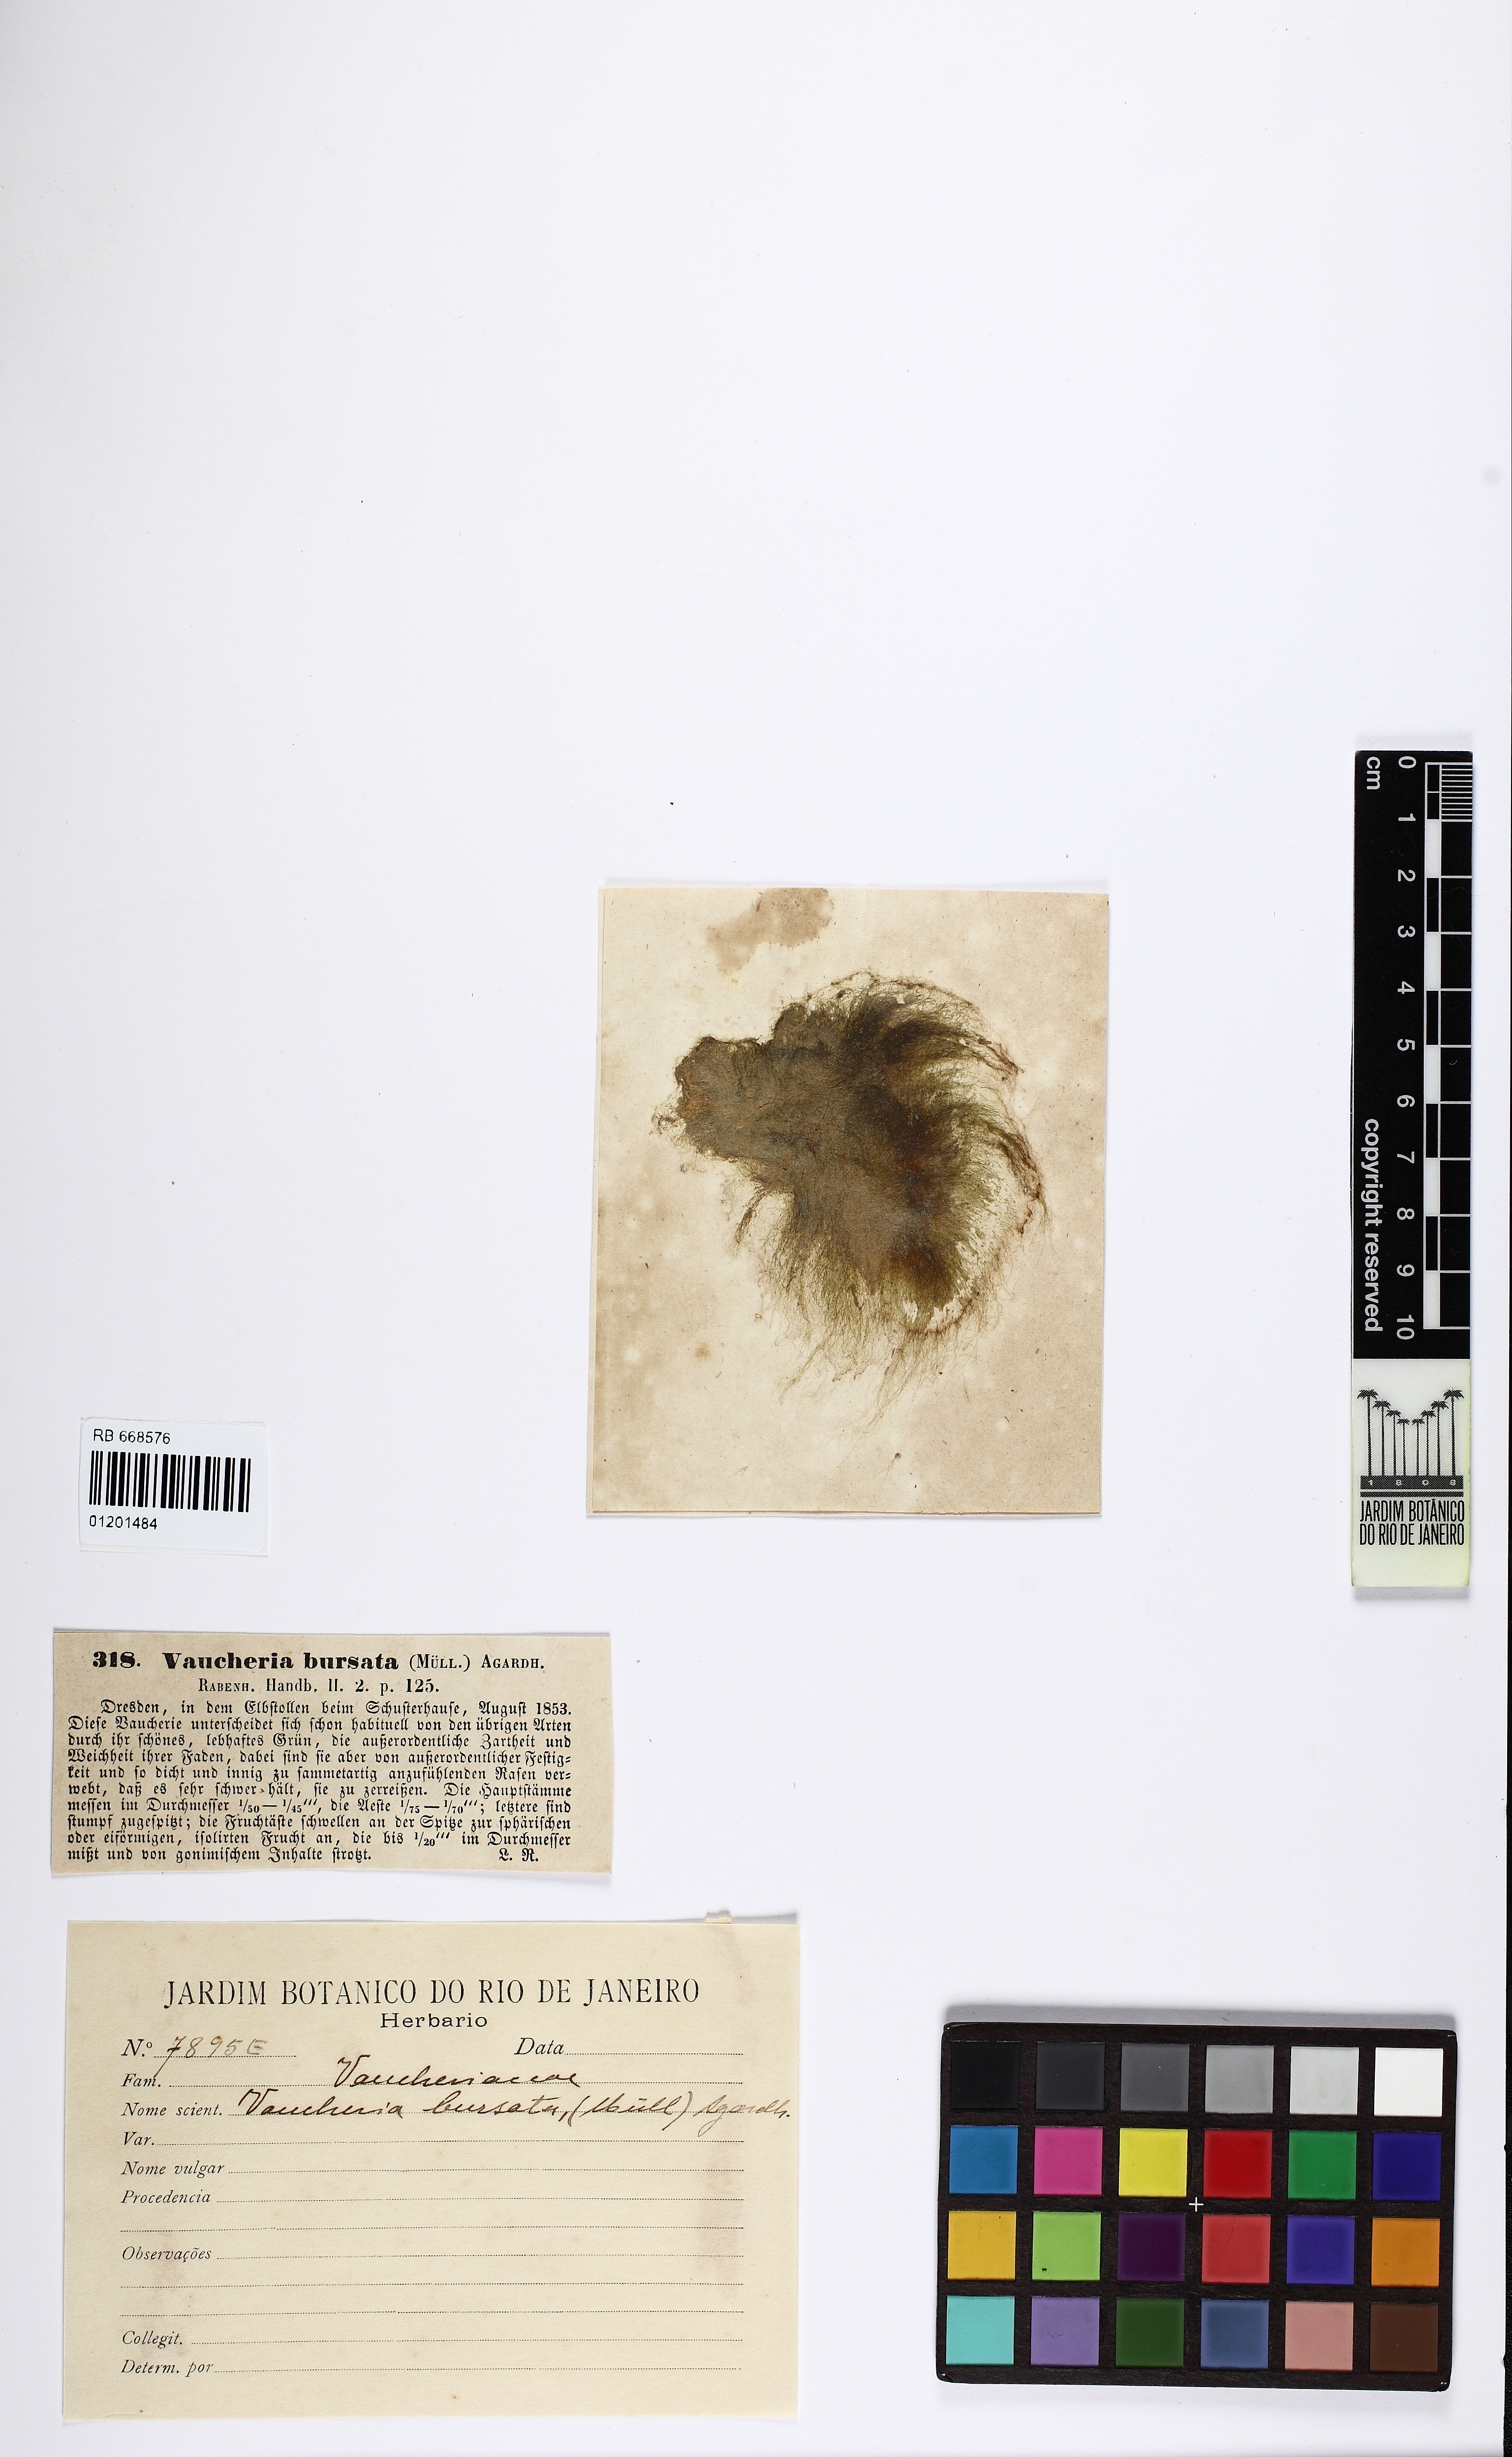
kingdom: Chromista
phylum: Ochrophyta
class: Xanthophyceae
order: Vaucheriales
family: Vaucheriaceae
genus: Vaucheria
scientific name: Vaucheria bursata
